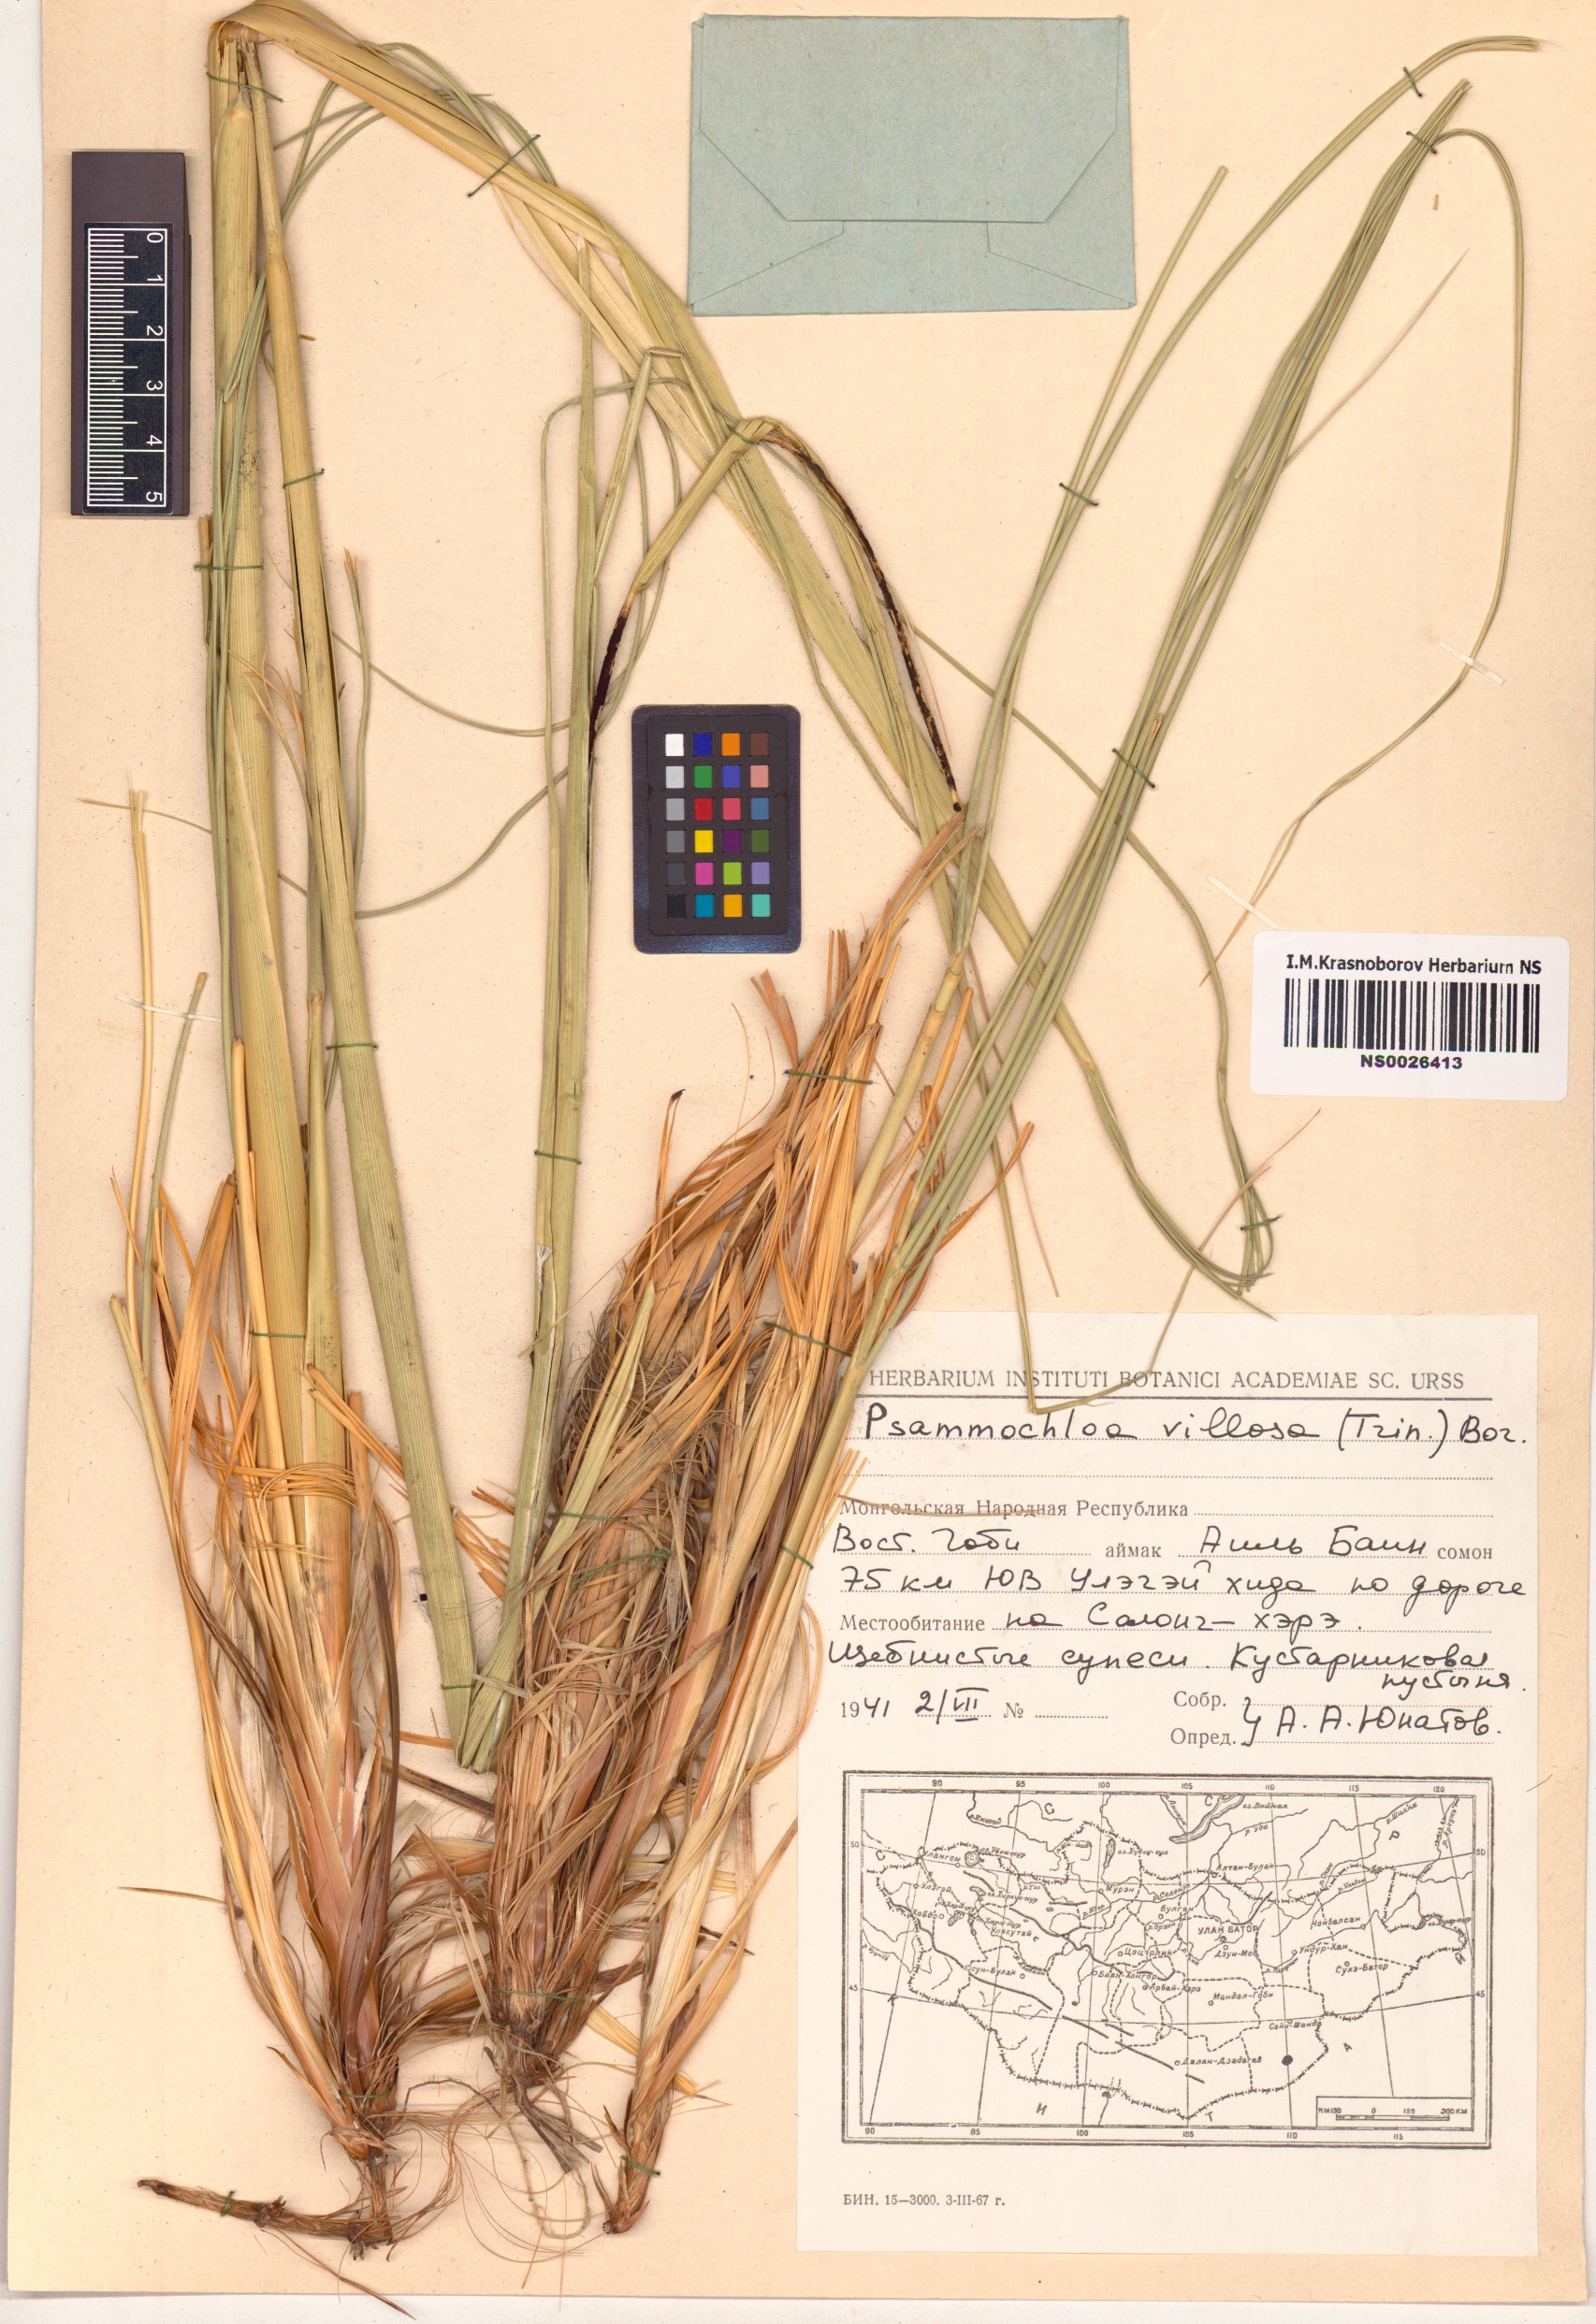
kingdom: Plantae
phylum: Tracheophyta
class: Liliopsida
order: Poales
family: Poaceae
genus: Psammochloa
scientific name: Psammochloa villosa
